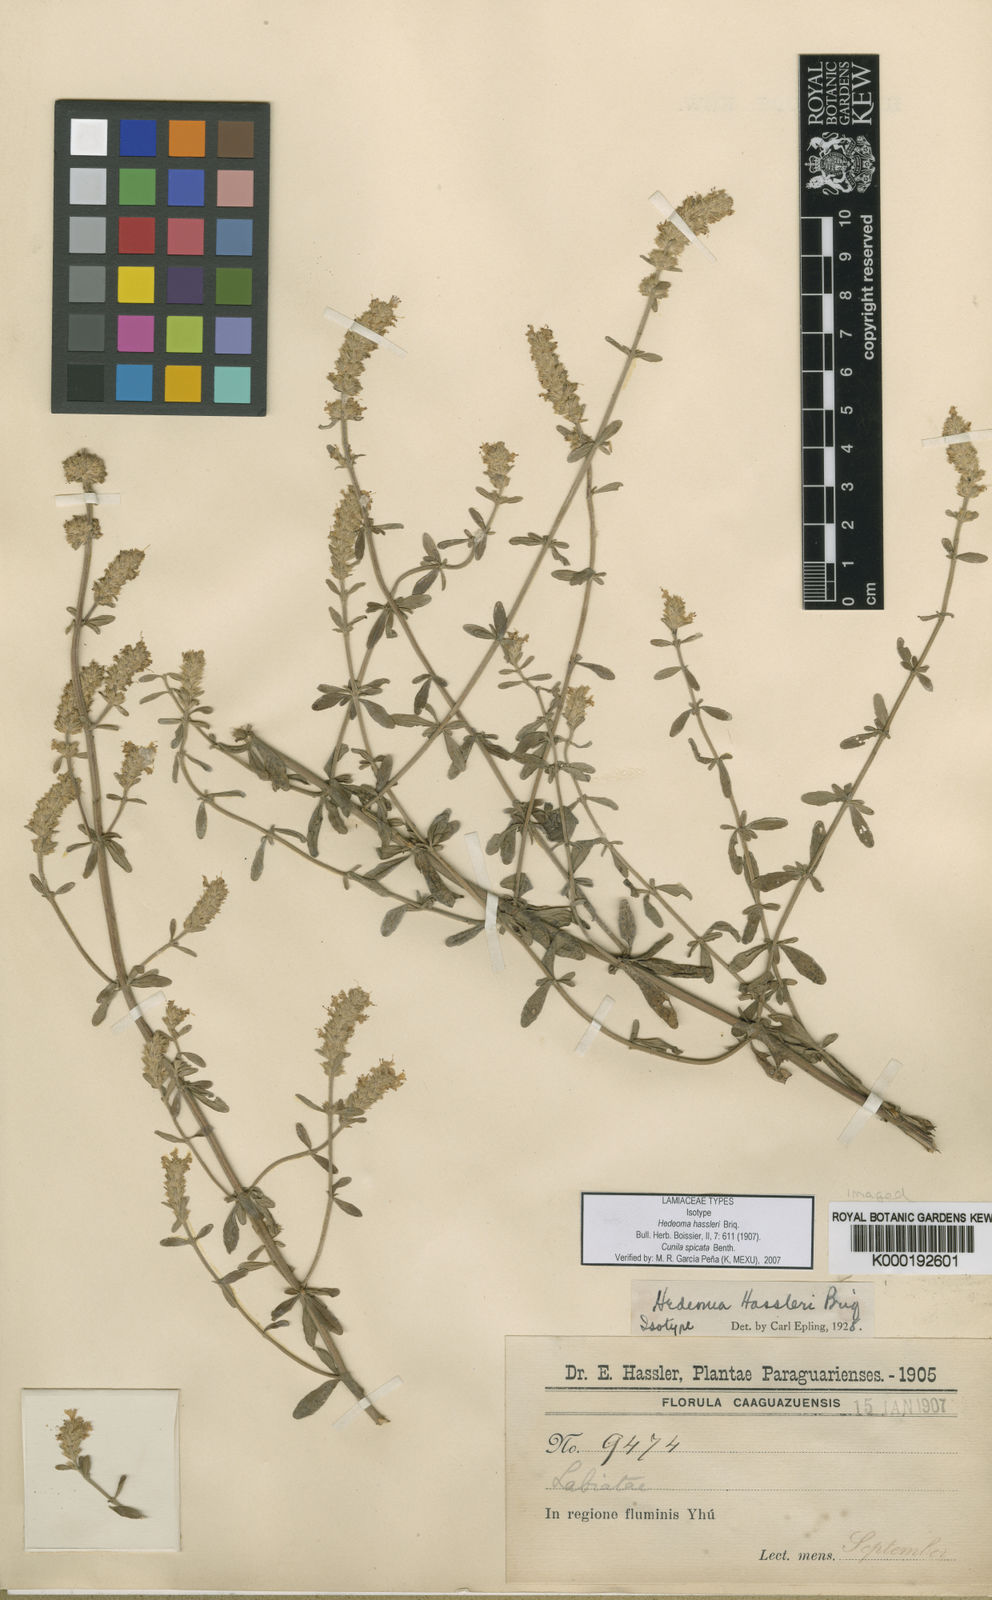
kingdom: Plantae
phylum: Tracheophyta
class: Magnoliopsida
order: Lamiales
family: Lamiaceae
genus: Cunila
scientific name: Cunila spicata
